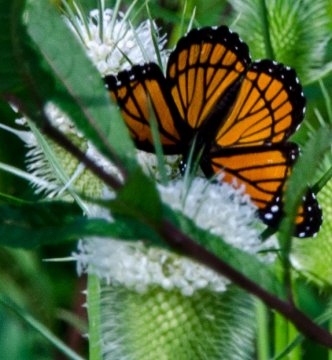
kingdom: Animalia
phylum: Arthropoda
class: Insecta
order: Lepidoptera
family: Nymphalidae
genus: Limenitis
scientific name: Limenitis archippus
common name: Viceroy
